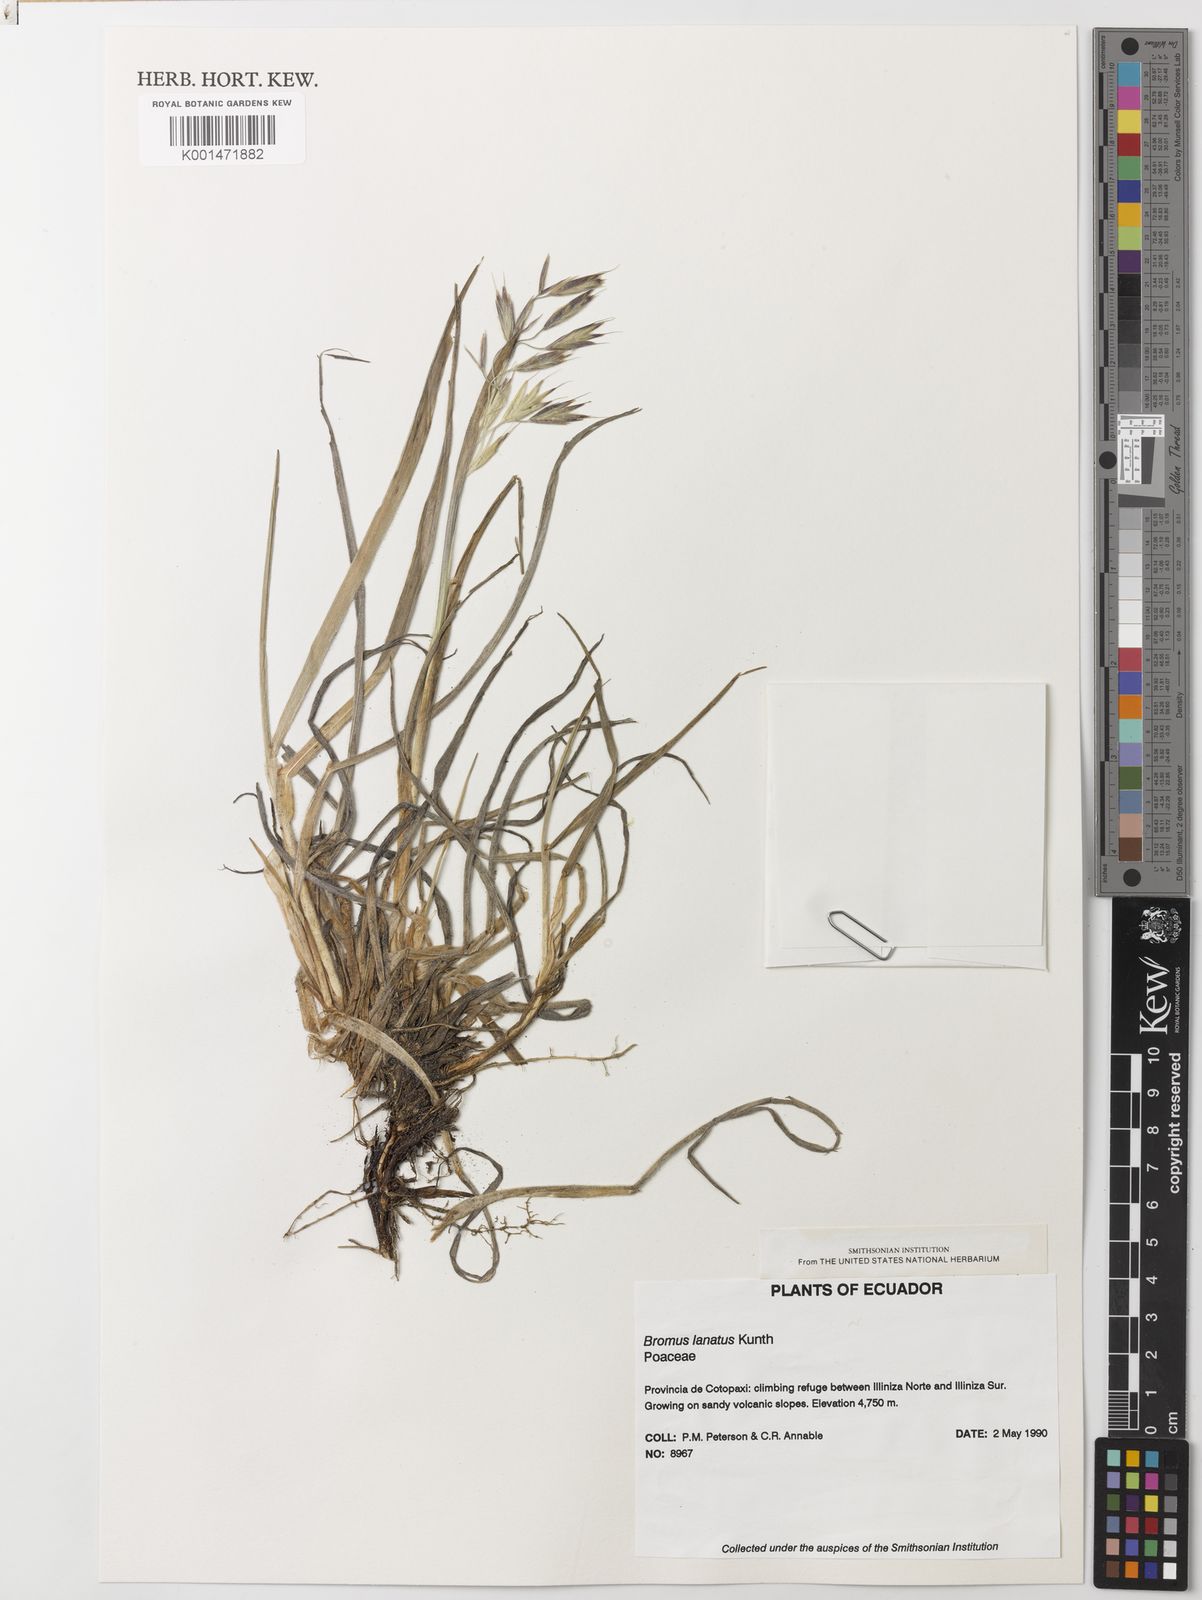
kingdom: Plantae
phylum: Tracheophyta
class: Liliopsida
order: Poales
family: Poaceae
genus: Bromus
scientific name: Bromus lanatus
